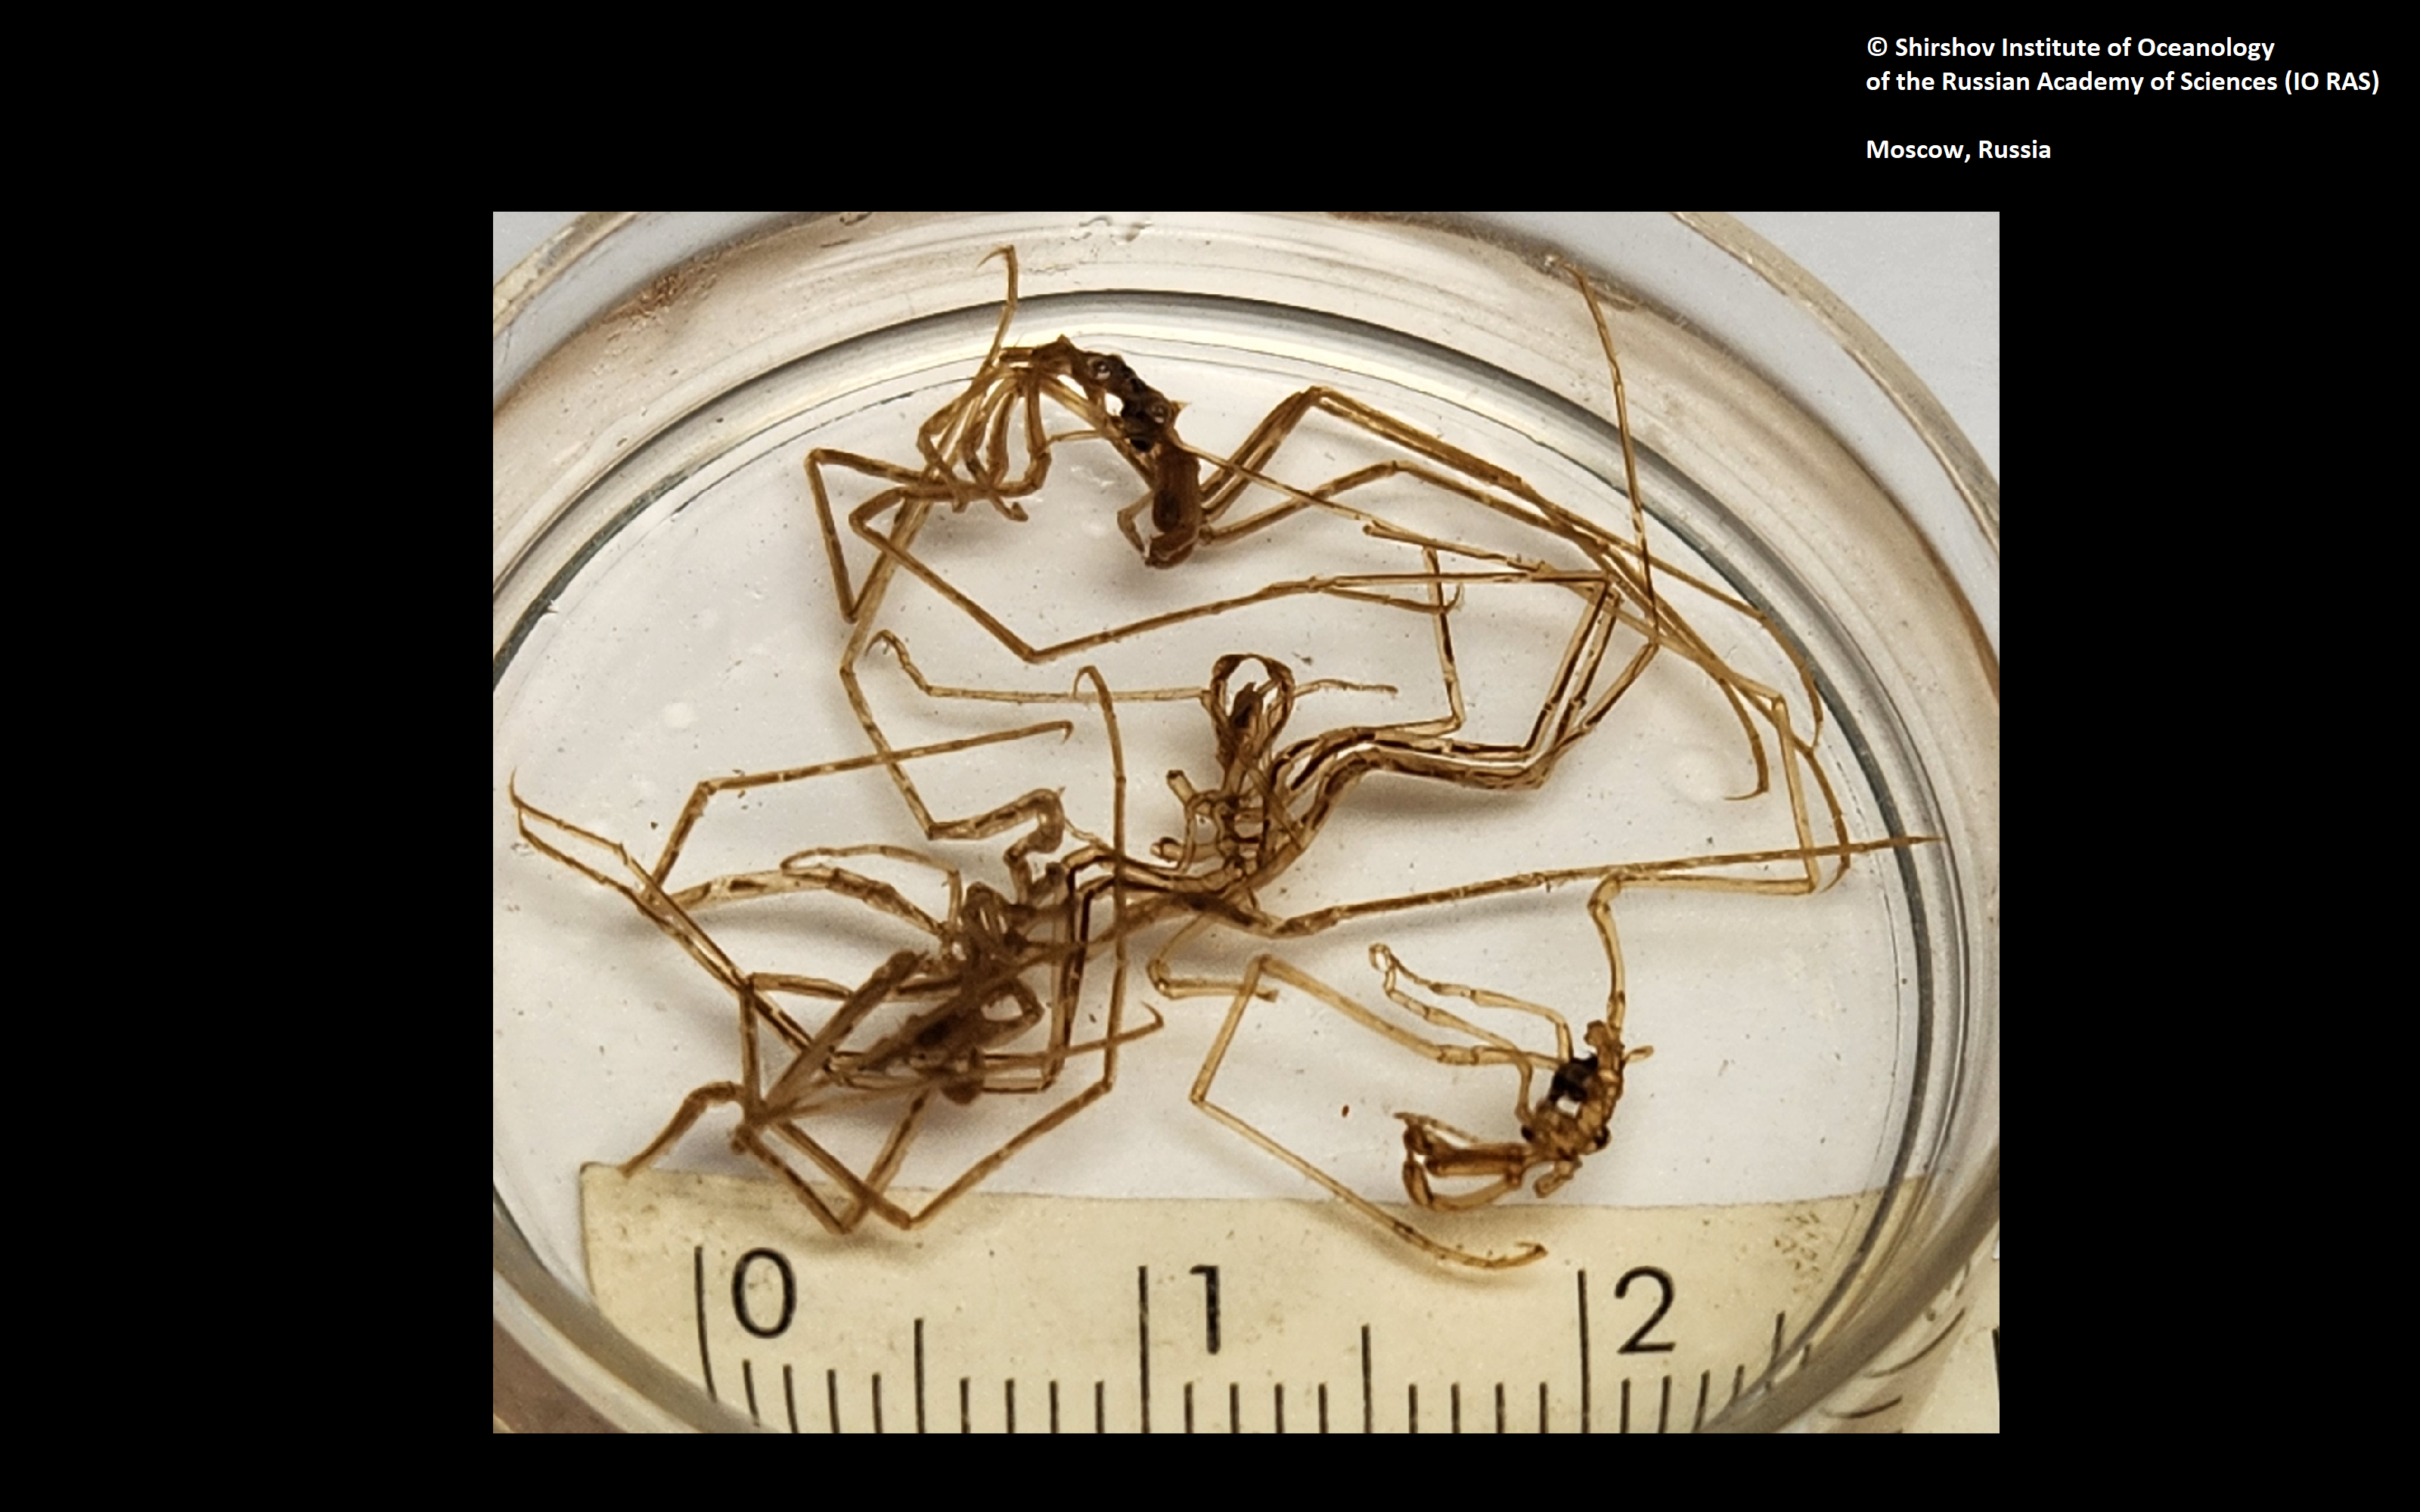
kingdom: Animalia
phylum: Arthropoda
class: Pycnogonida
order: Pantopoda
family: Nymphonidae
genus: Nymphon
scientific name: Nymphon grossipes
